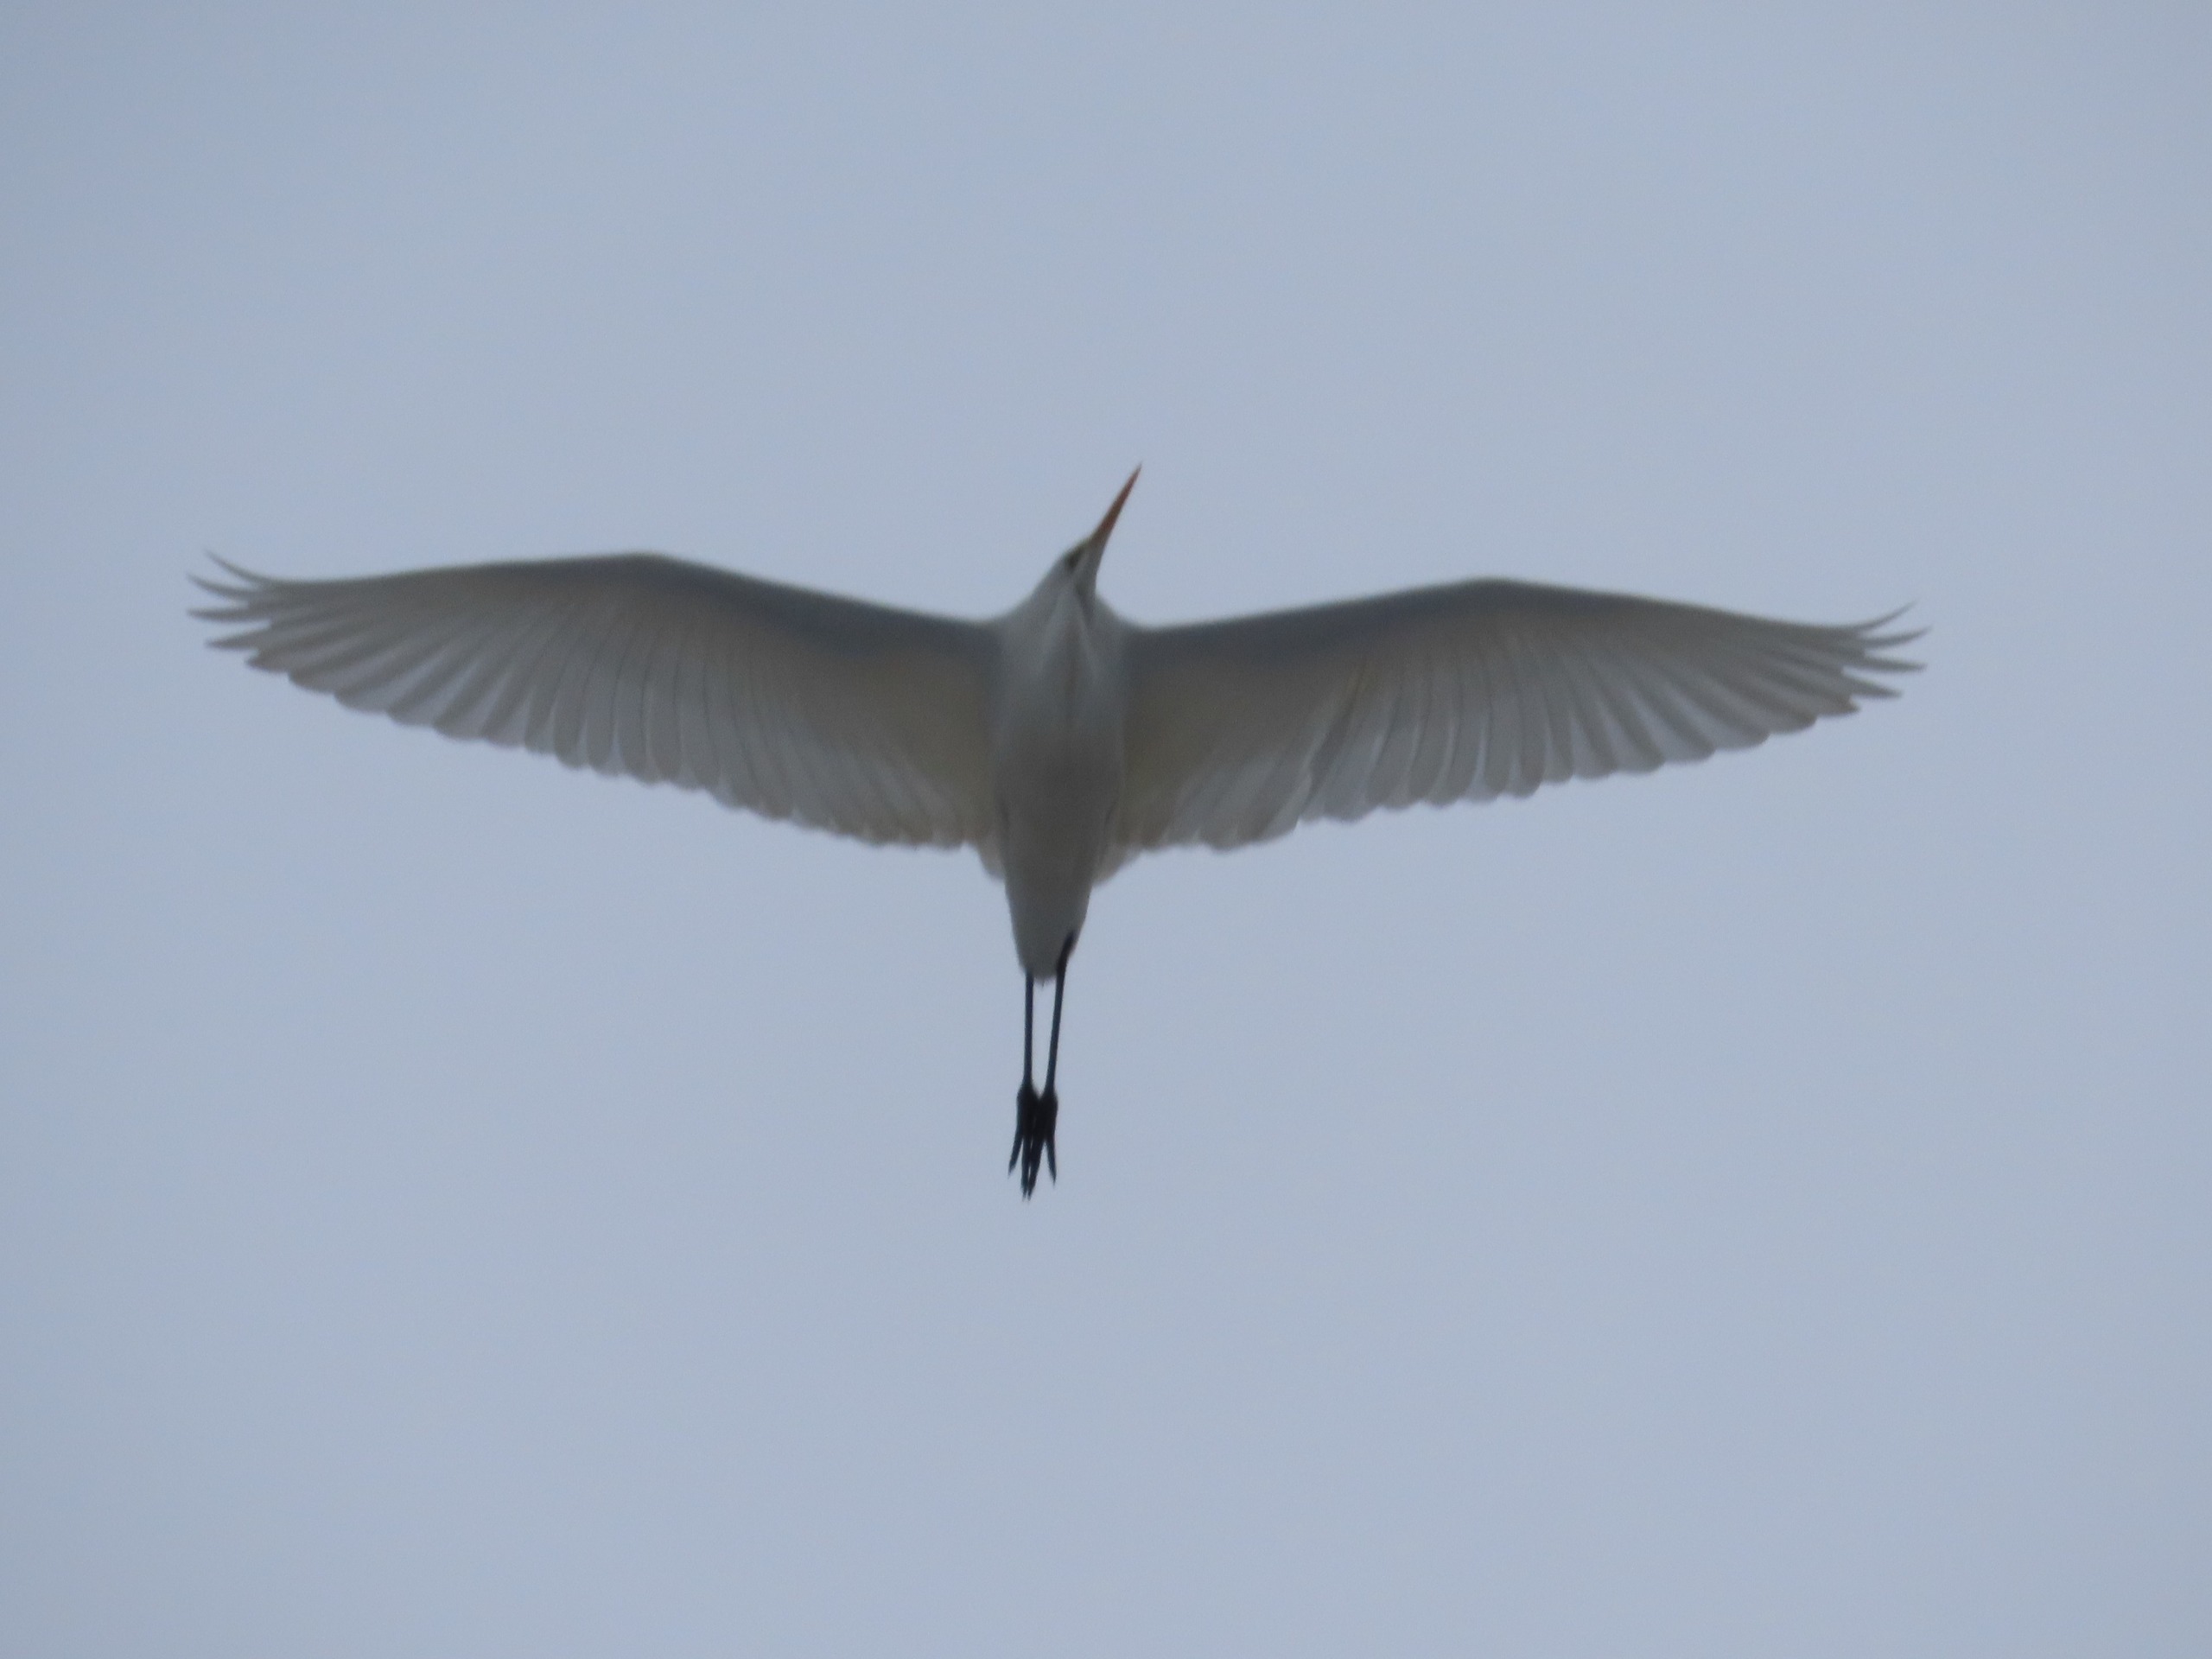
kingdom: Animalia
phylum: Chordata
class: Aves
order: Pelecaniformes
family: Ardeidae
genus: Ardea
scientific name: Ardea alba
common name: Sølvhejre
